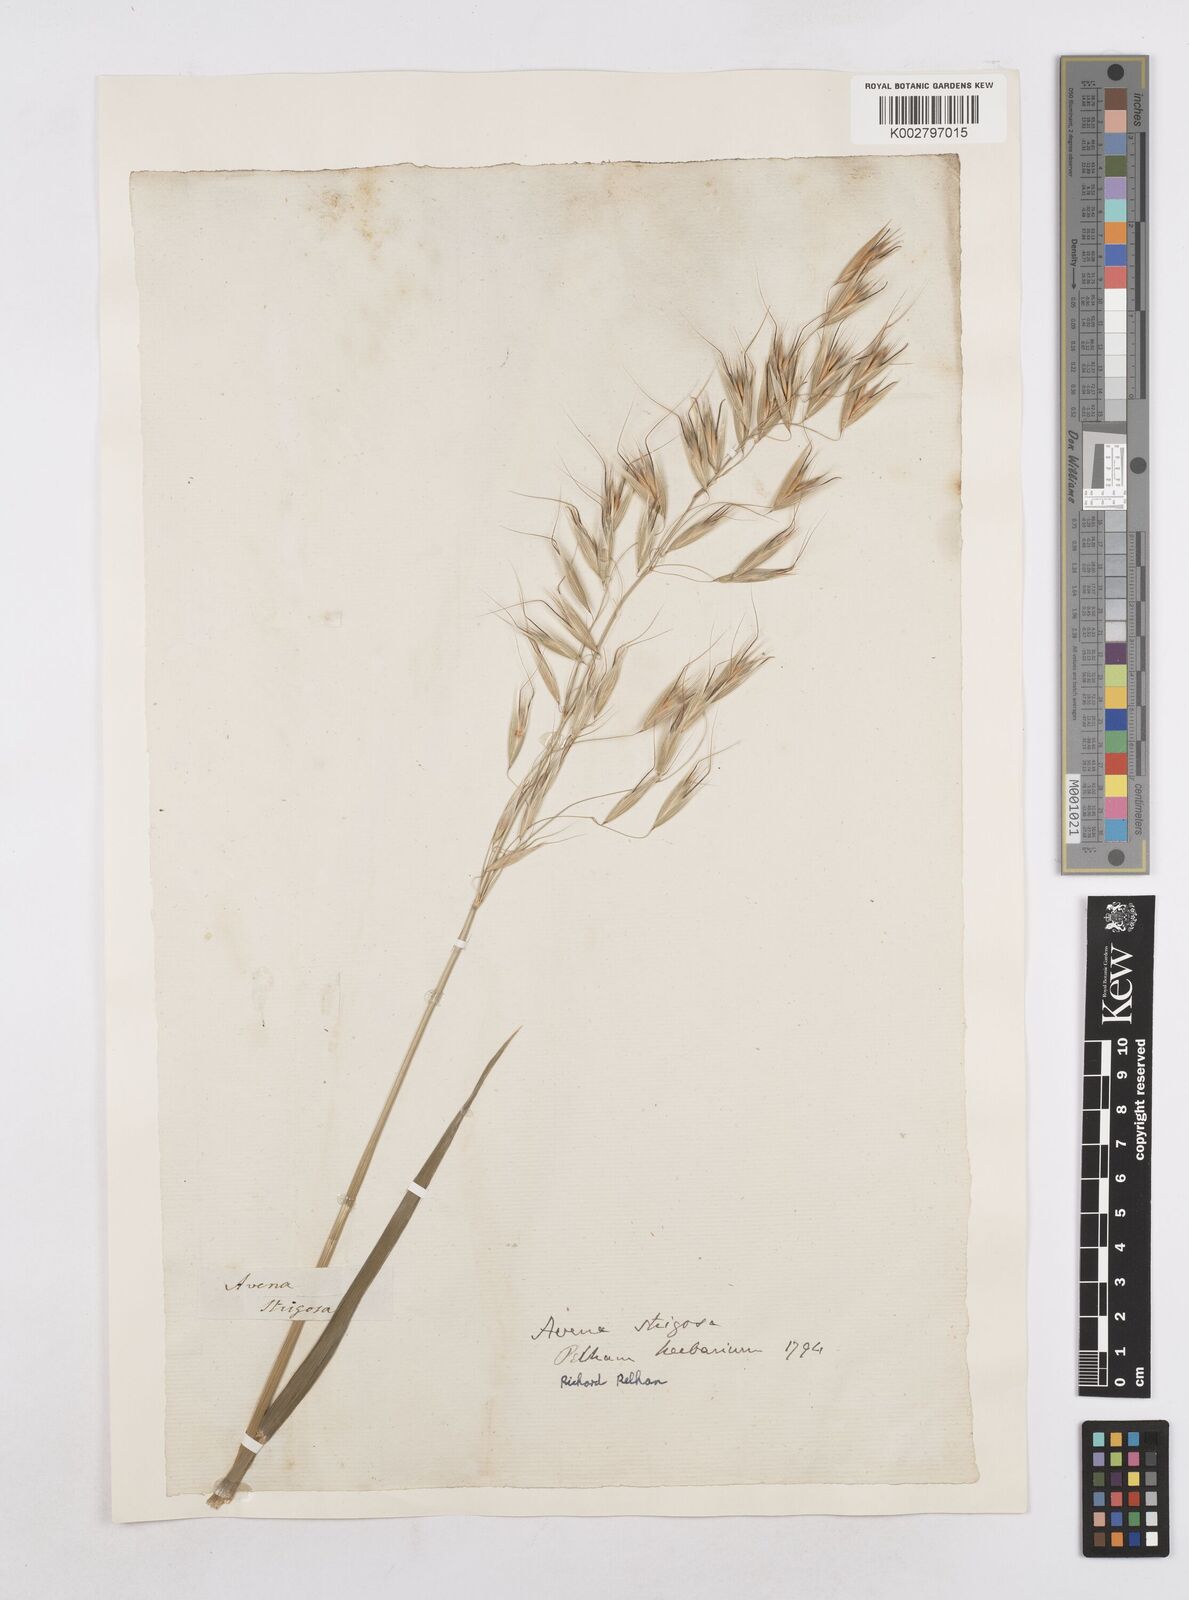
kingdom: Plantae
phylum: Tracheophyta
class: Liliopsida
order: Poales
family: Poaceae
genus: Avena
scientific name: Avena strigosa
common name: Bristle oat
